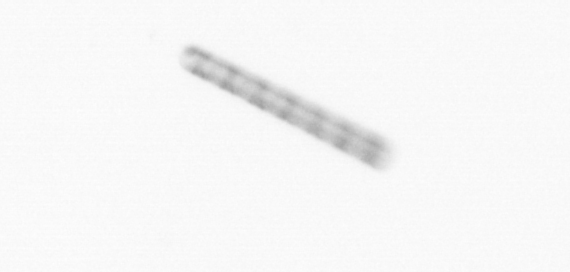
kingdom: Chromista
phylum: Ochrophyta
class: Bacillariophyceae
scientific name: Bacillariophyceae
